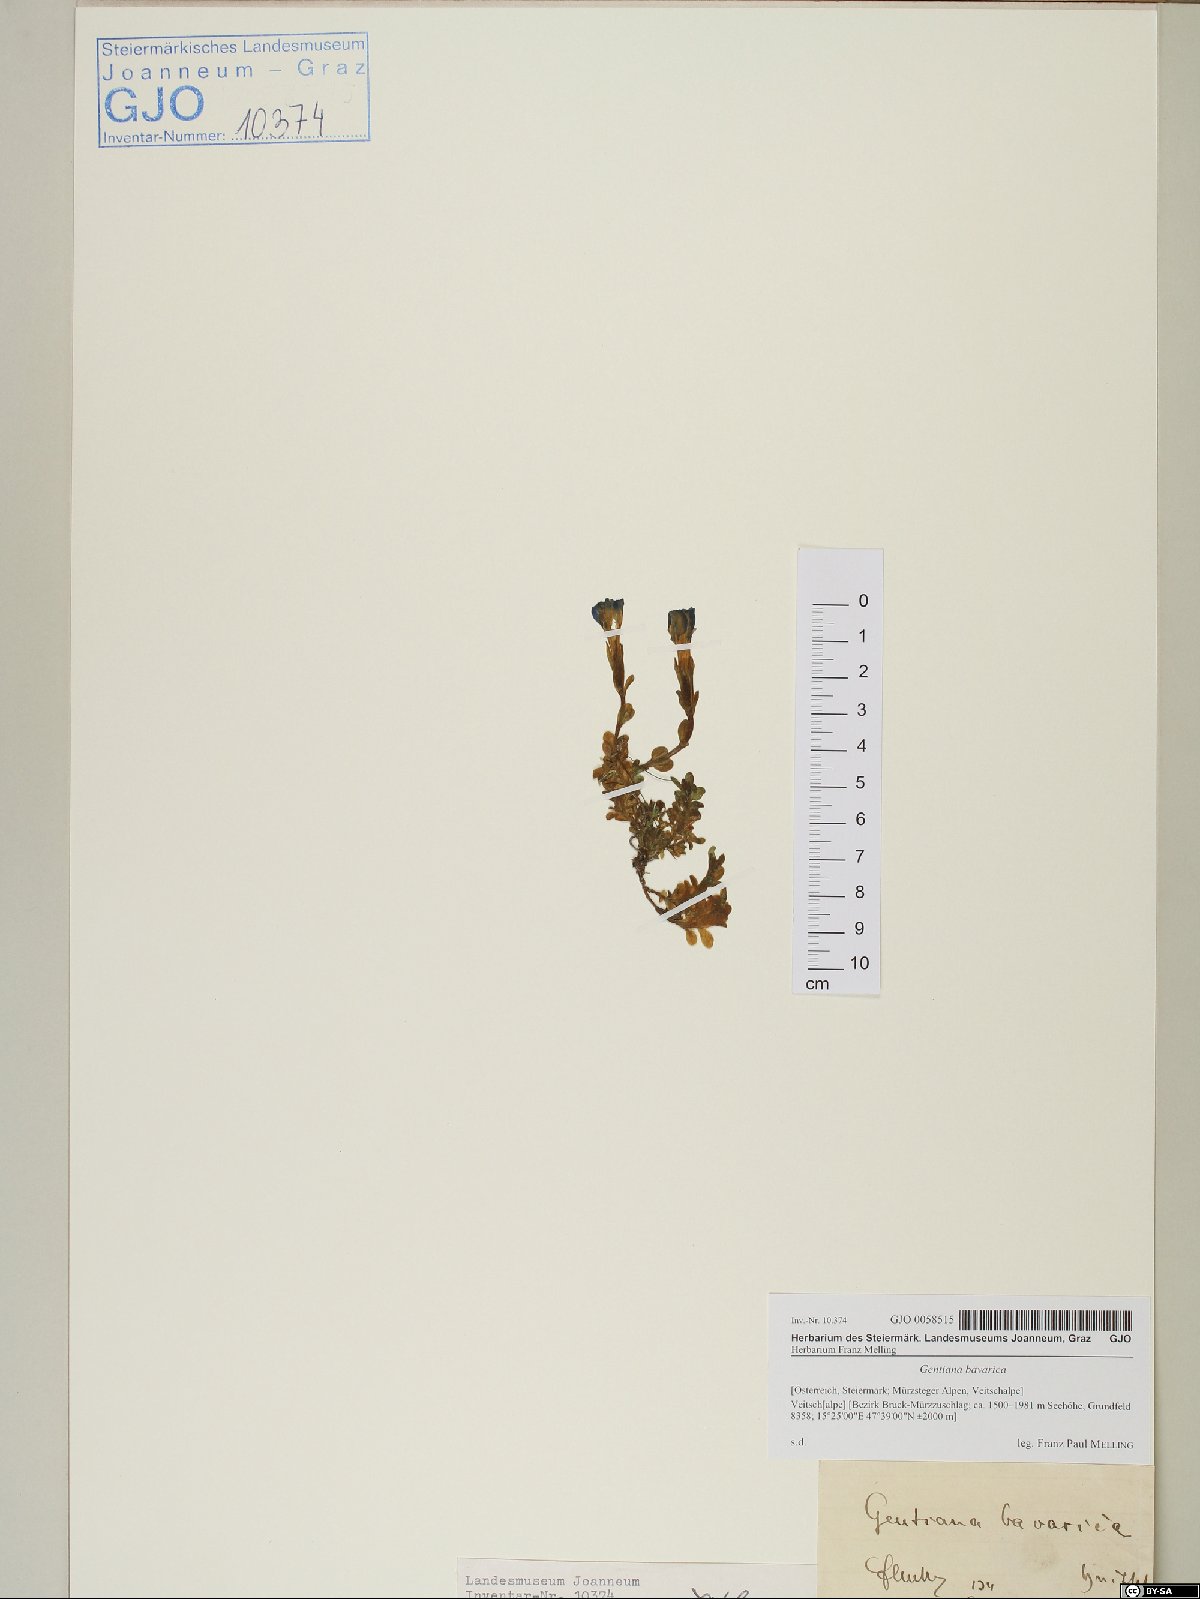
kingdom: Plantae
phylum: Tracheophyta
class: Magnoliopsida
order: Gentianales
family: Gentianaceae
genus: Gentiana
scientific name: Gentiana bavarica
